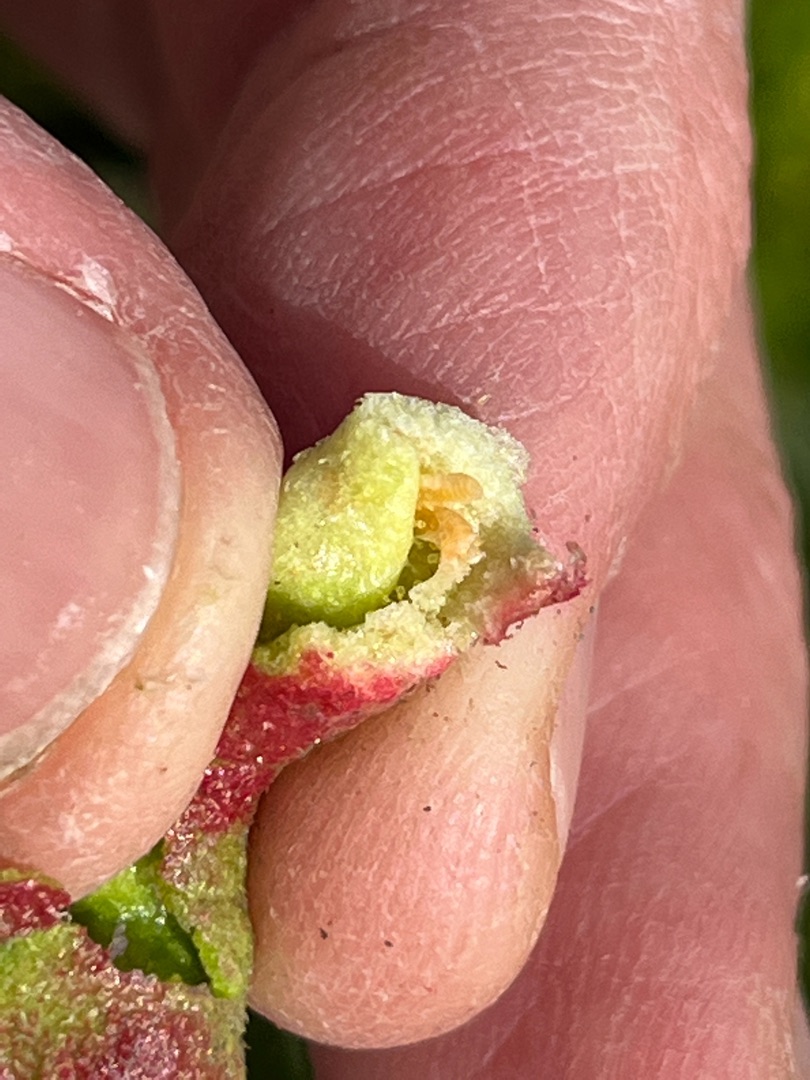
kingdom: Animalia
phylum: Arthropoda
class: Insecta
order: Diptera
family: Cecidomyiidae
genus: Wachtliella
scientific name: Wachtliella persicariae
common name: Pileurtgalmyg
